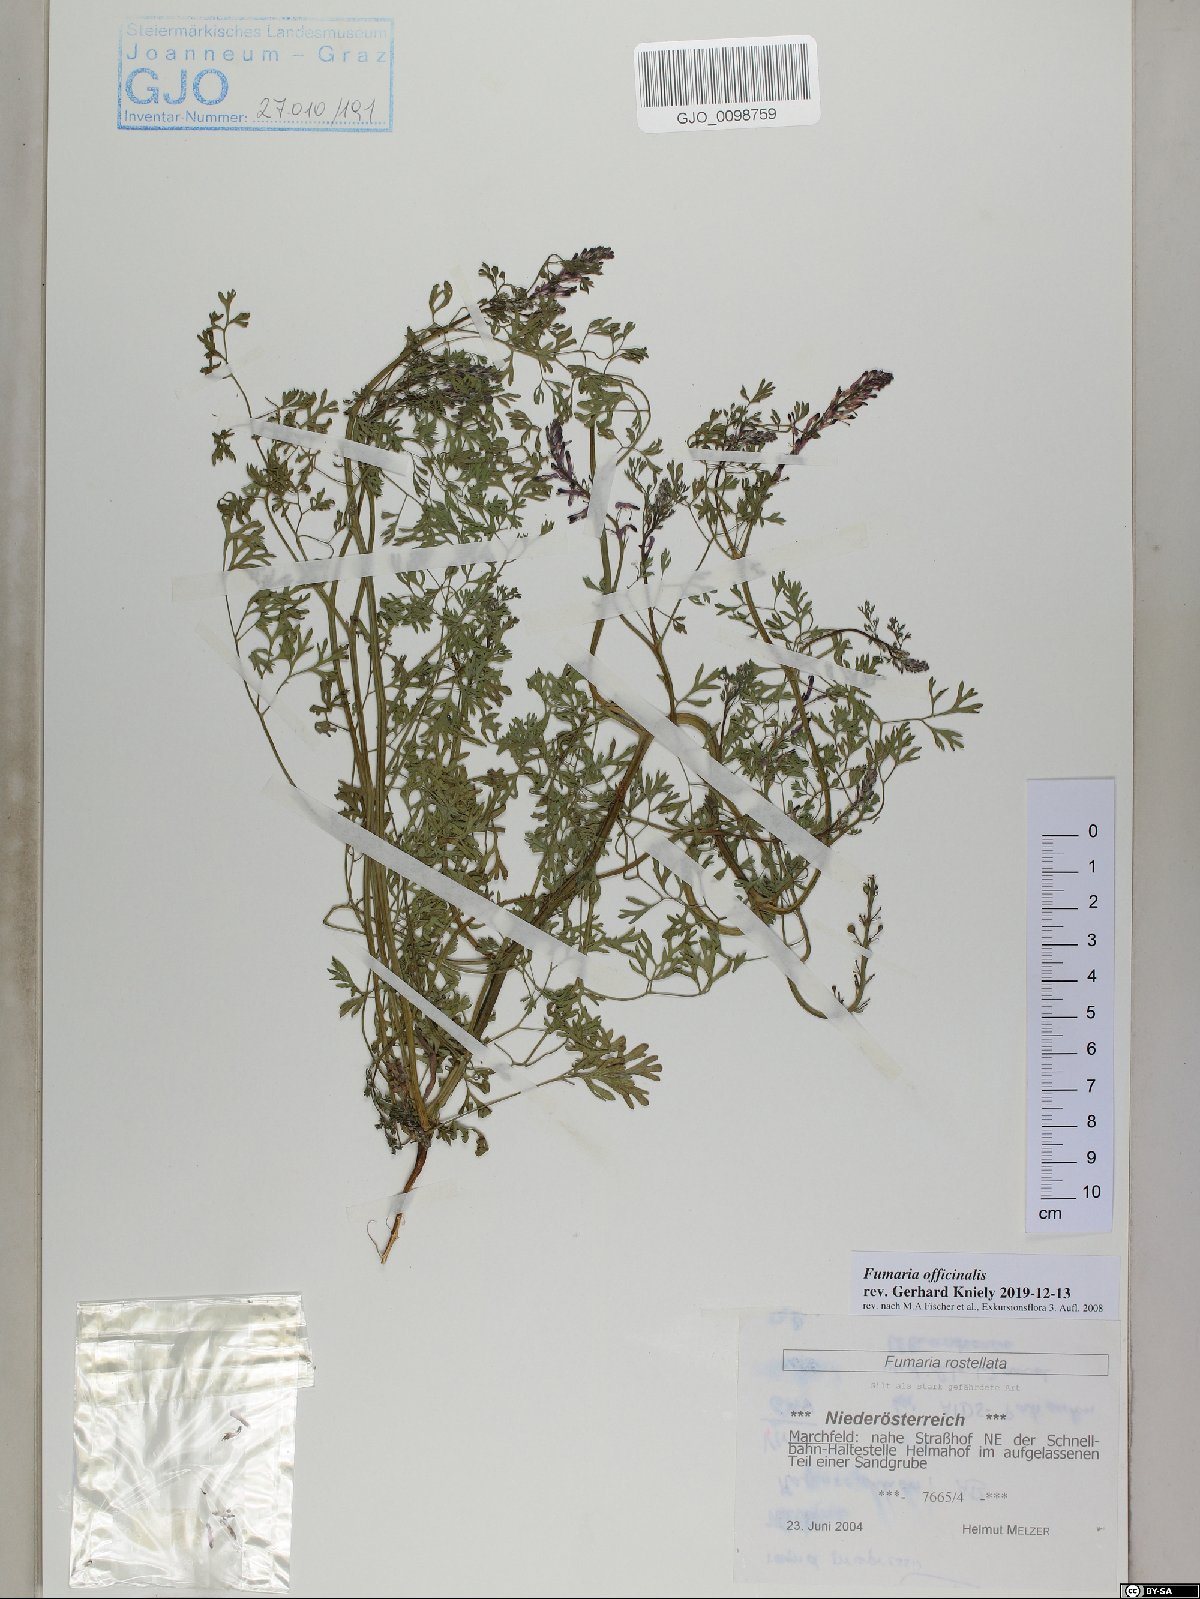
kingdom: Plantae
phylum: Tracheophyta
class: Magnoliopsida
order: Ranunculales
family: Papaveraceae
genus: Fumaria
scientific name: Fumaria officinalis
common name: Common fumitory
